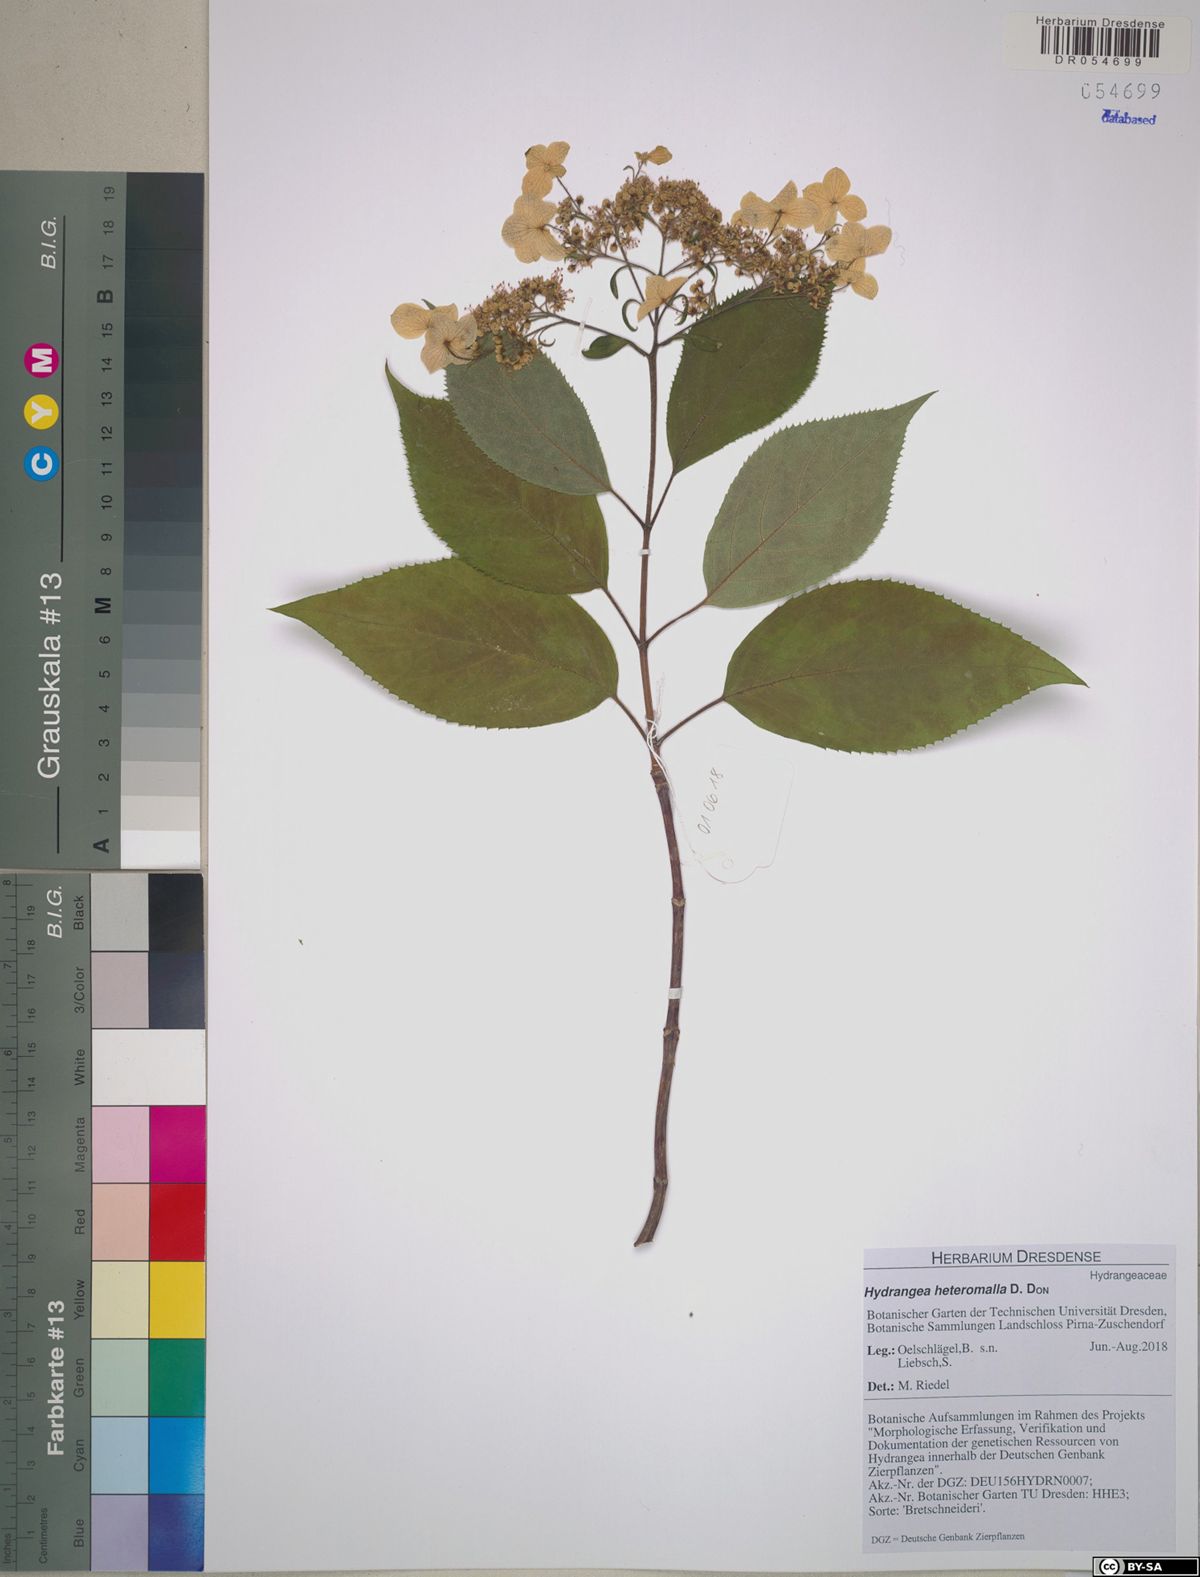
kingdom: Plantae
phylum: Tracheophyta
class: Magnoliopsida
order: Cornales
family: Hydrangeaceae
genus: Hydrangea
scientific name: Hydrangea heteromalla
